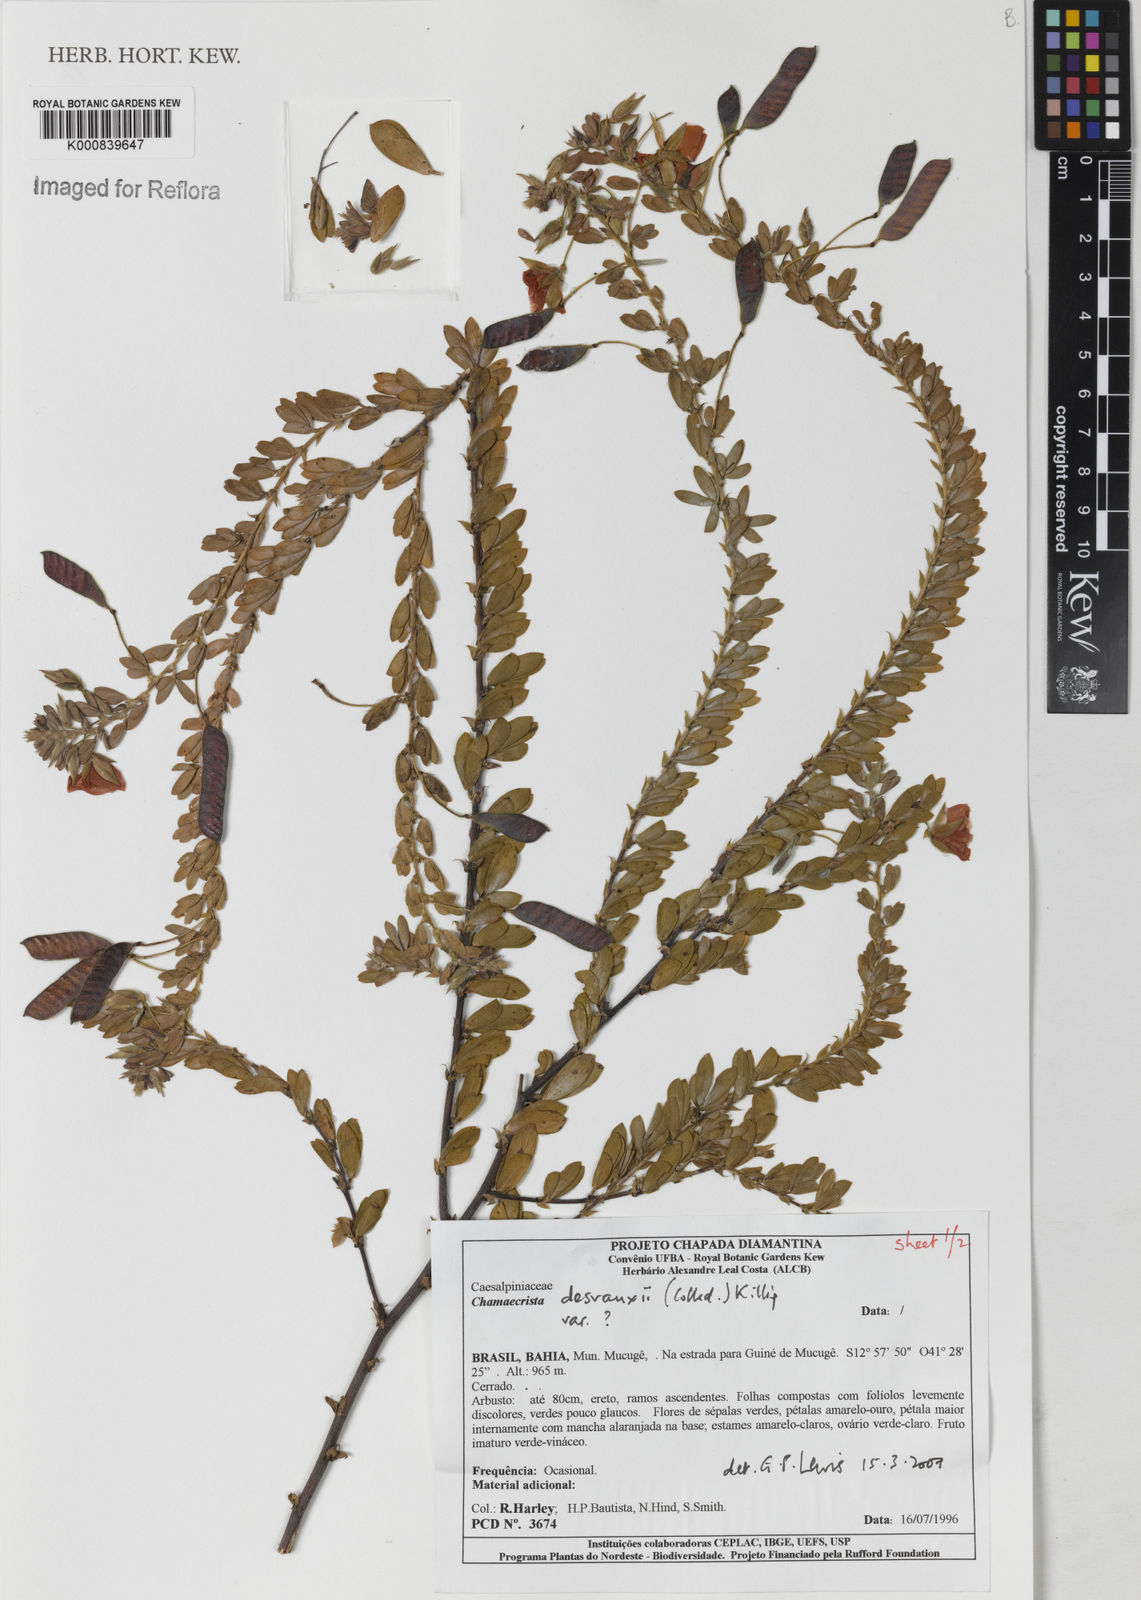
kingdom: Plantae
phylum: Tracheophyta
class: Magnoliopsida
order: Fabales
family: Fabaceae
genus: Chamaecrista
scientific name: Chamaecrista desvauxii
